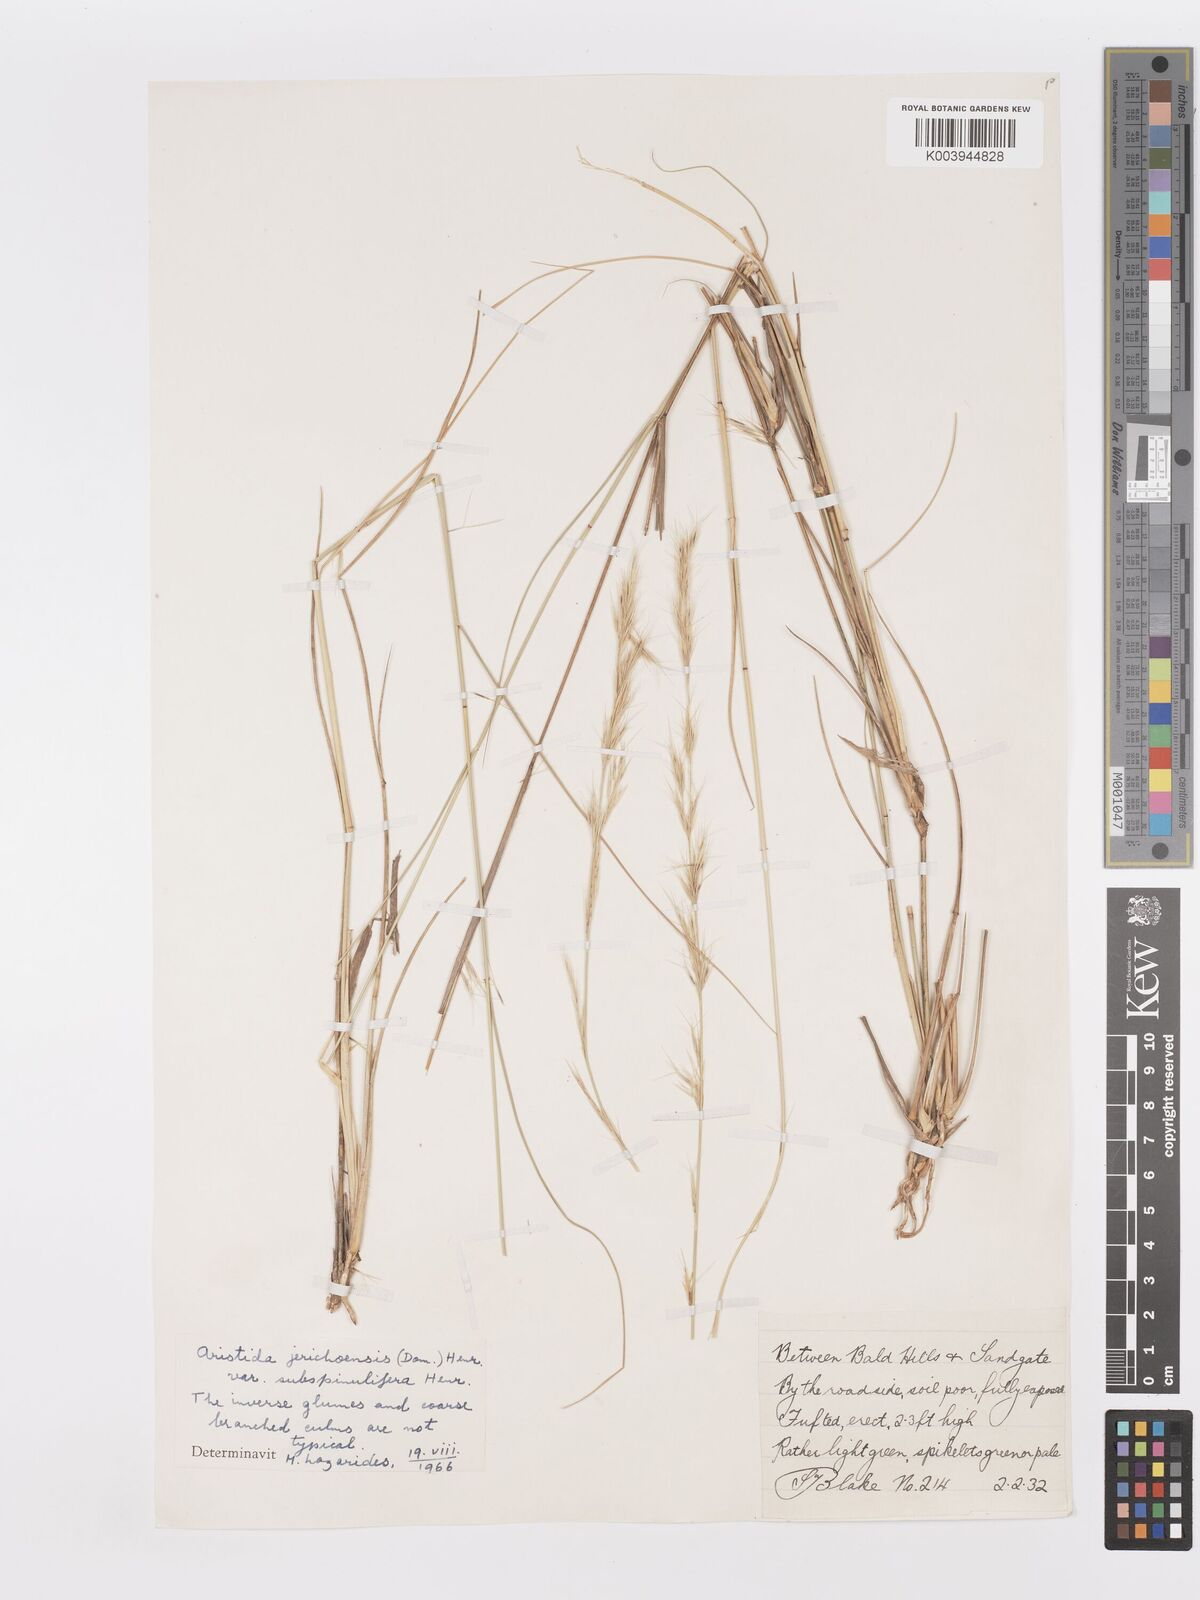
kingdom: Plantae
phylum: Tracheophyta
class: Liliopsida
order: Poales
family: Poaceae
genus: Aristida
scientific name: Aristida jerichoensis
